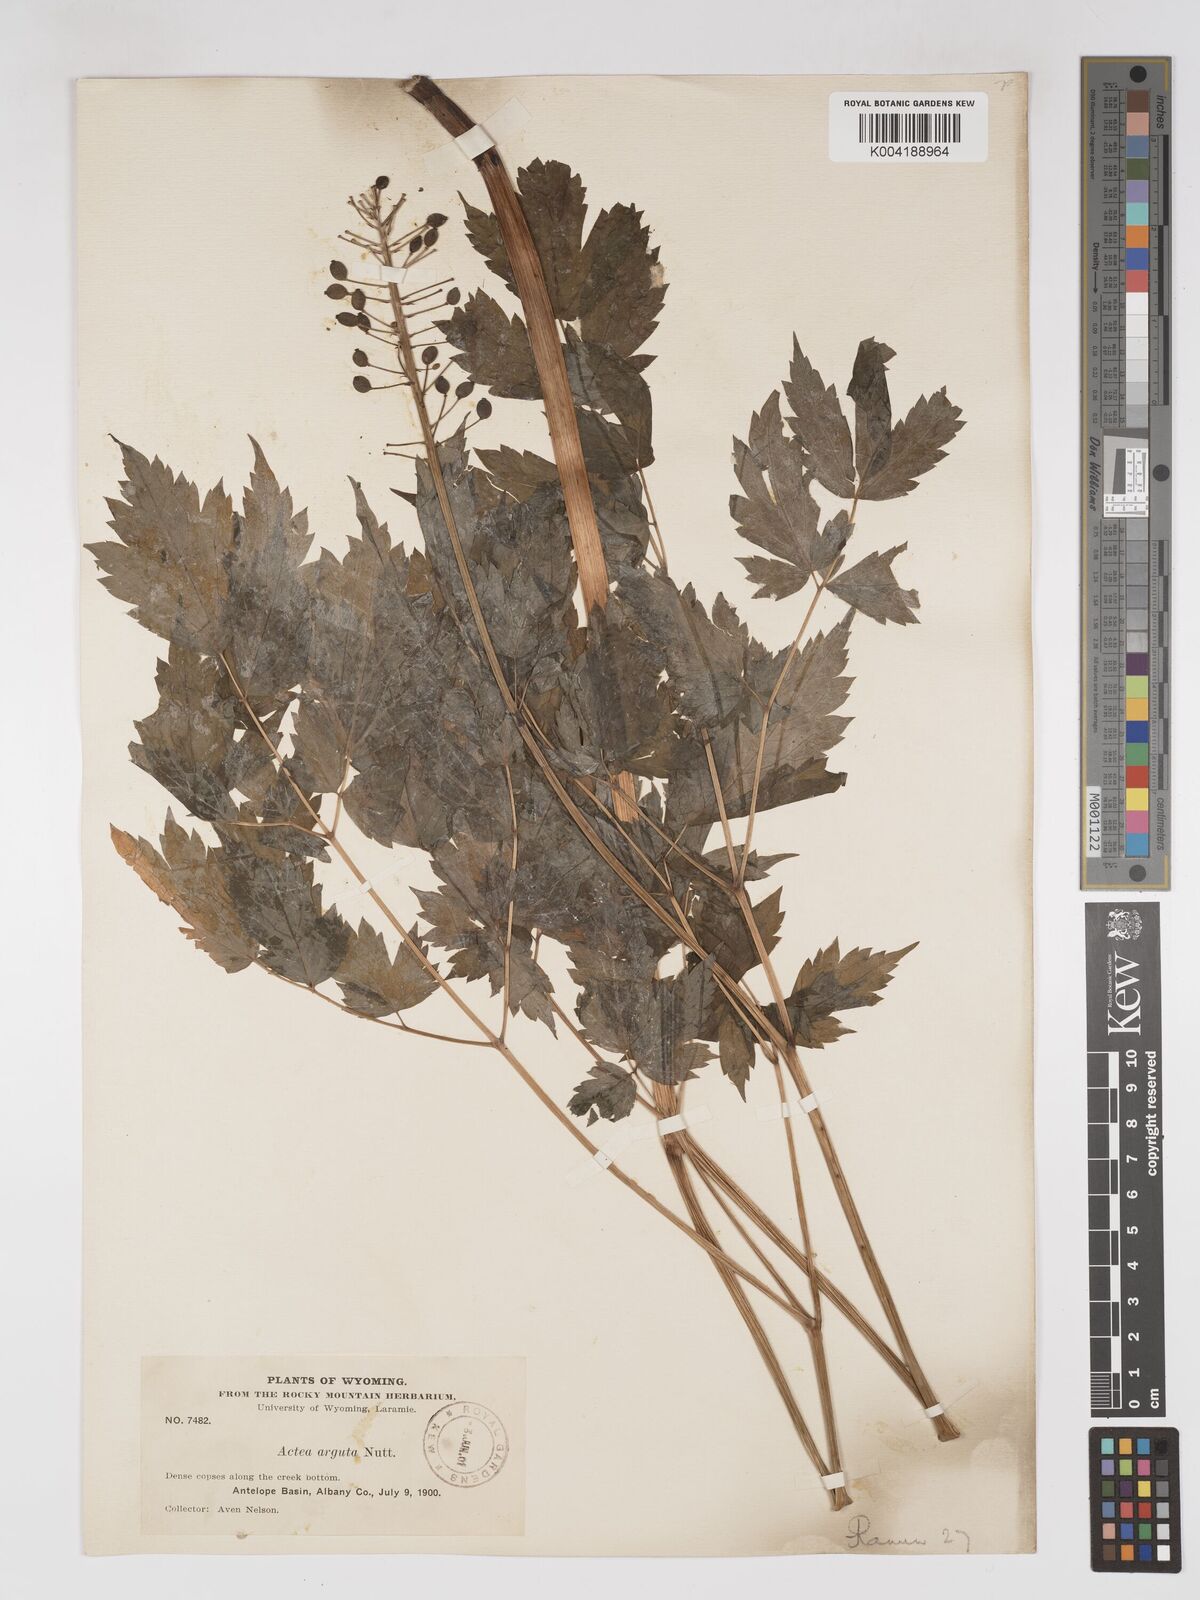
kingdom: Plantae
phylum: Tracheophyta
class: Magnoliopsida
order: Ranunculales
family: Ranunculaceae
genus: Actaea
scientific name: Actaea rubra
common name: Red baneberry
